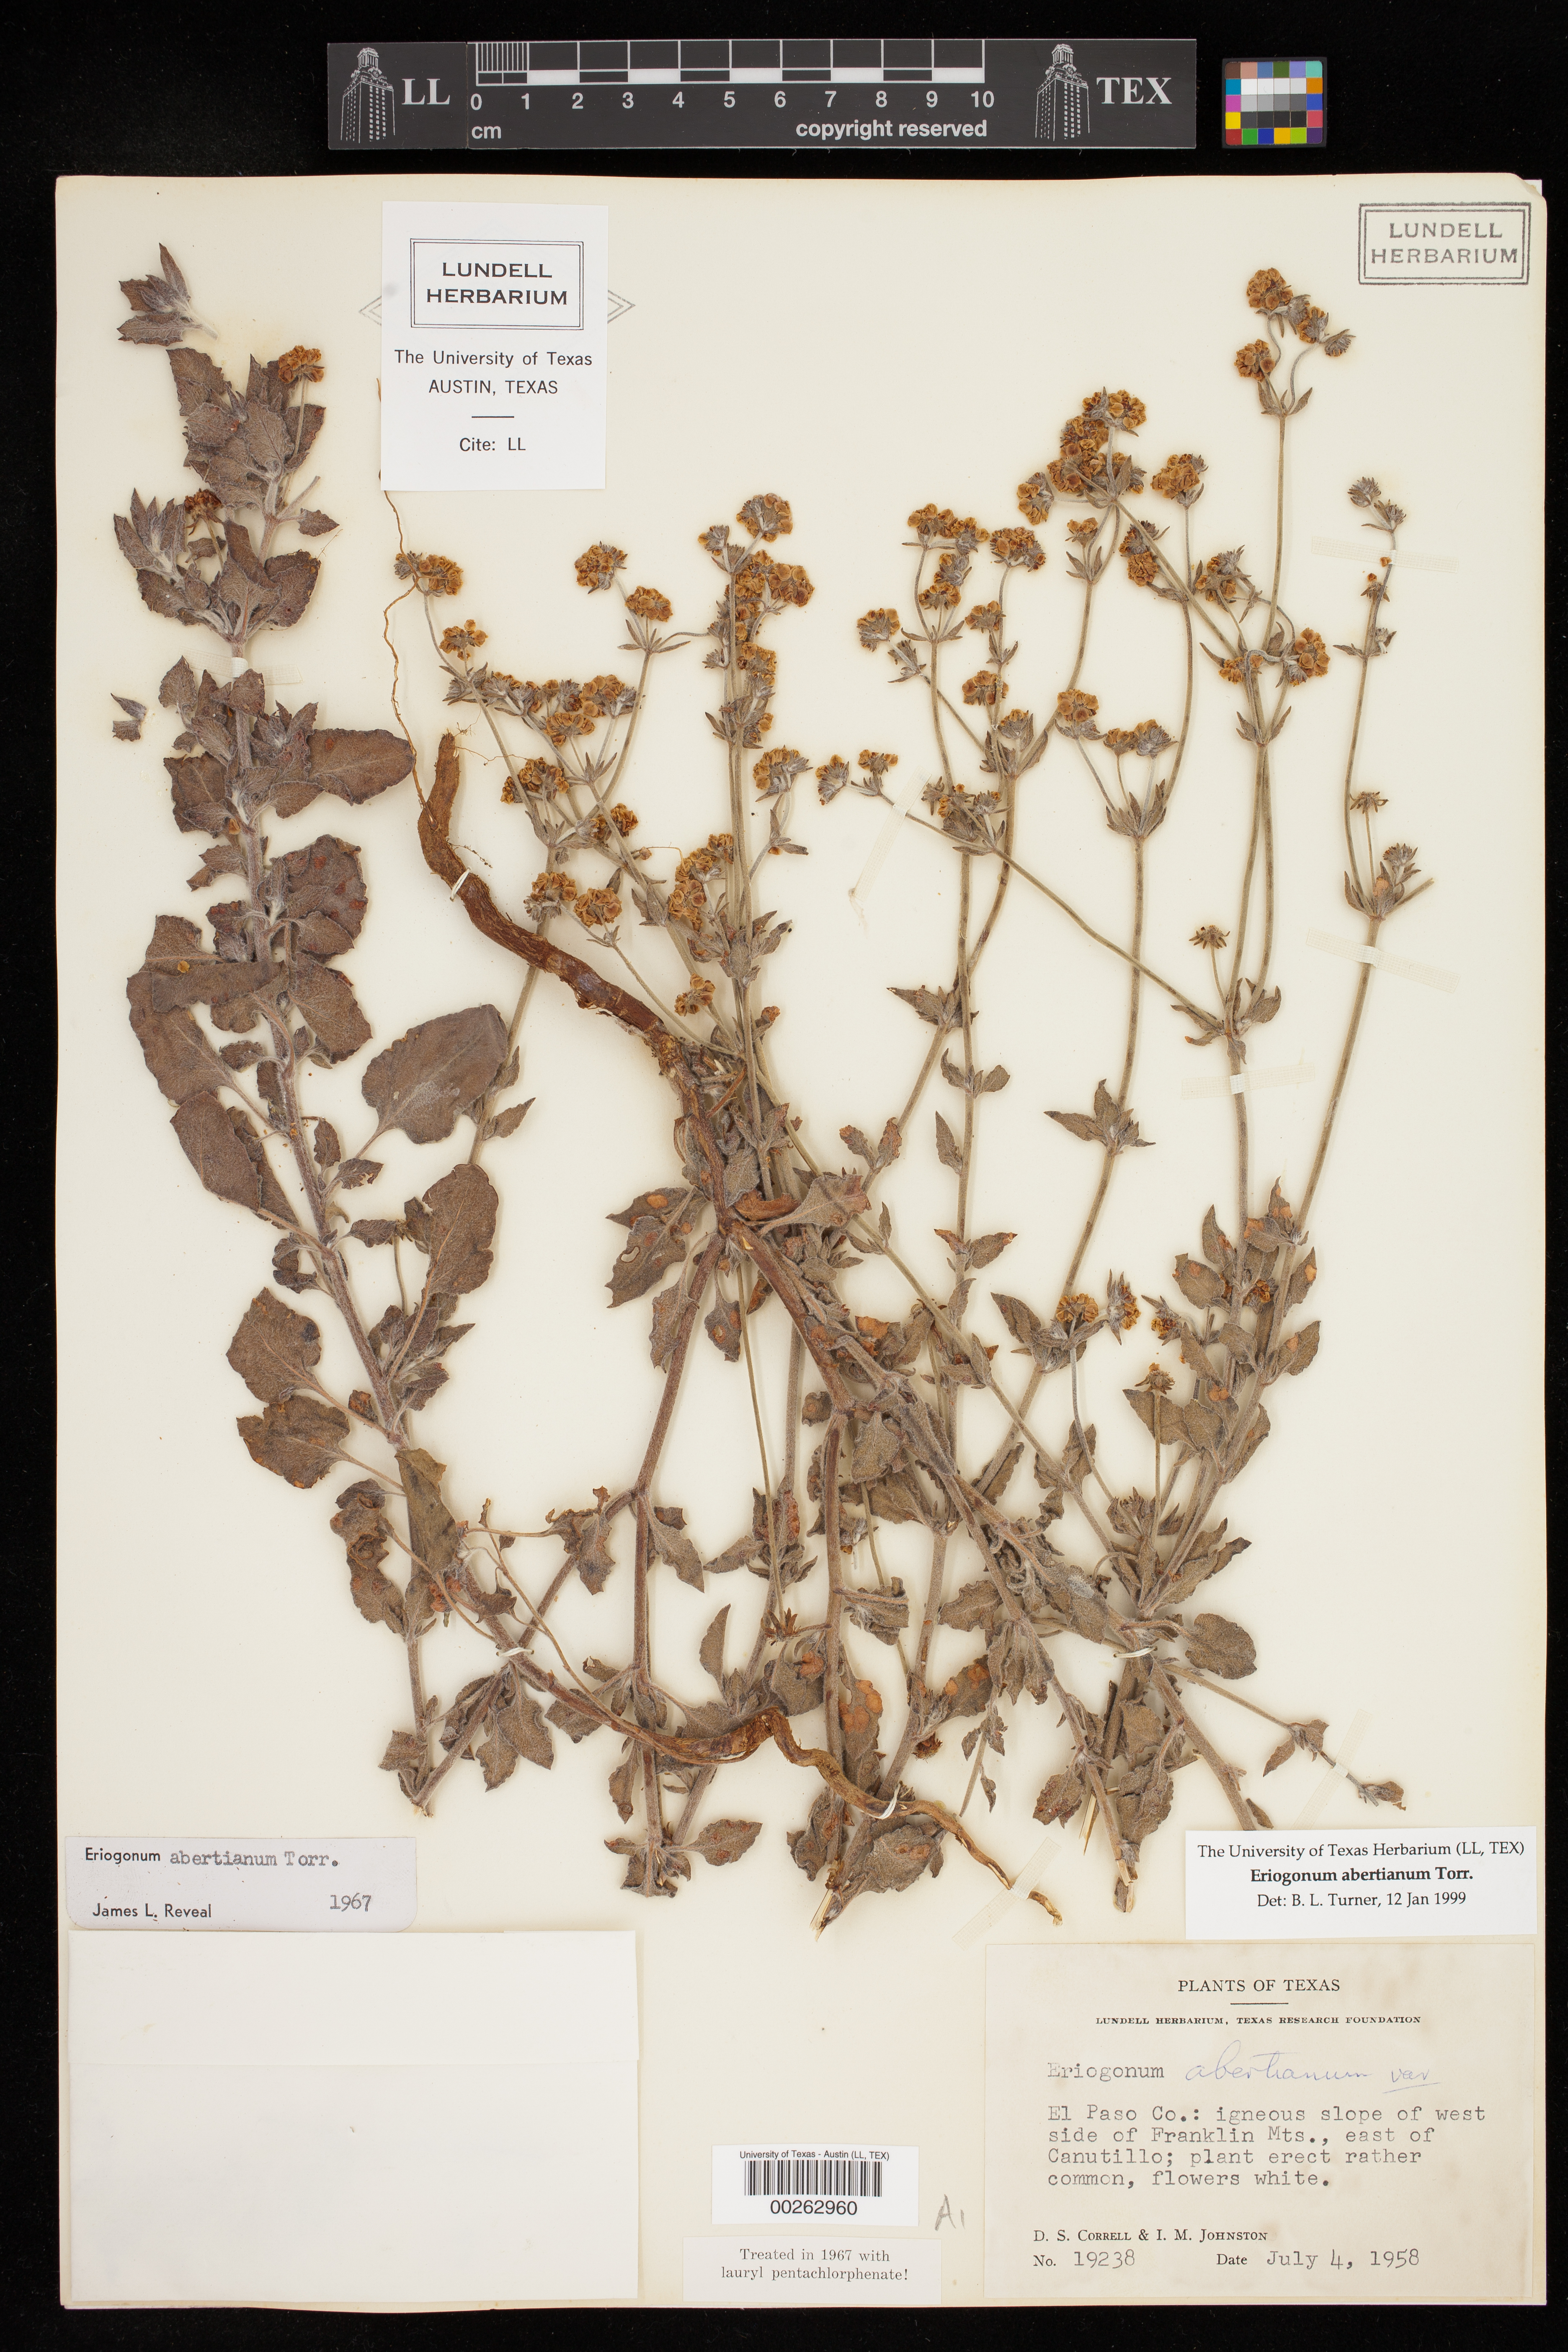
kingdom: Plantae
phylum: Tracheophyta
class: Magnoliopsida
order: Caryophyllales
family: Polygonaceae
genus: Eriogonum
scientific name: Eriogonum abertianum
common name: Abert's wild buckwheat
